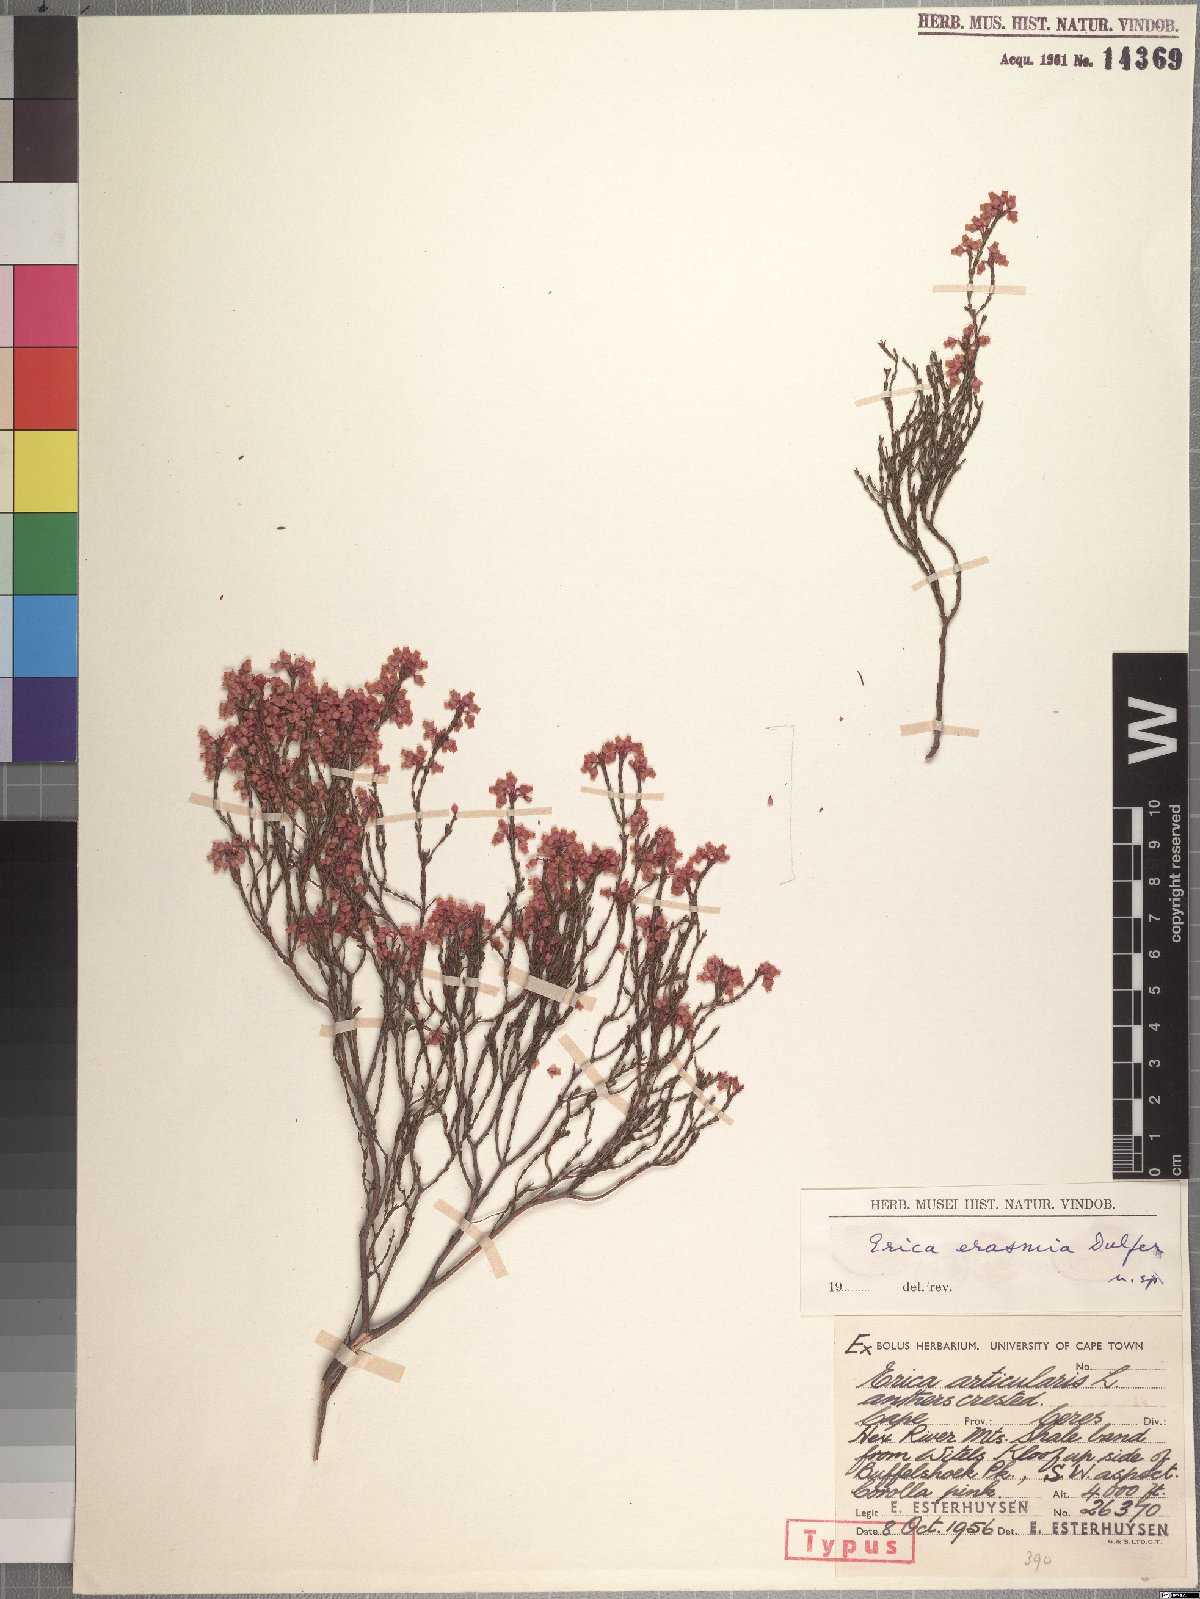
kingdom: Plantae
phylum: Tracheophyta
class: Magnoliopsida
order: Ericales
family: Ericaceae
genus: Erica
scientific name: Erica erasmia
